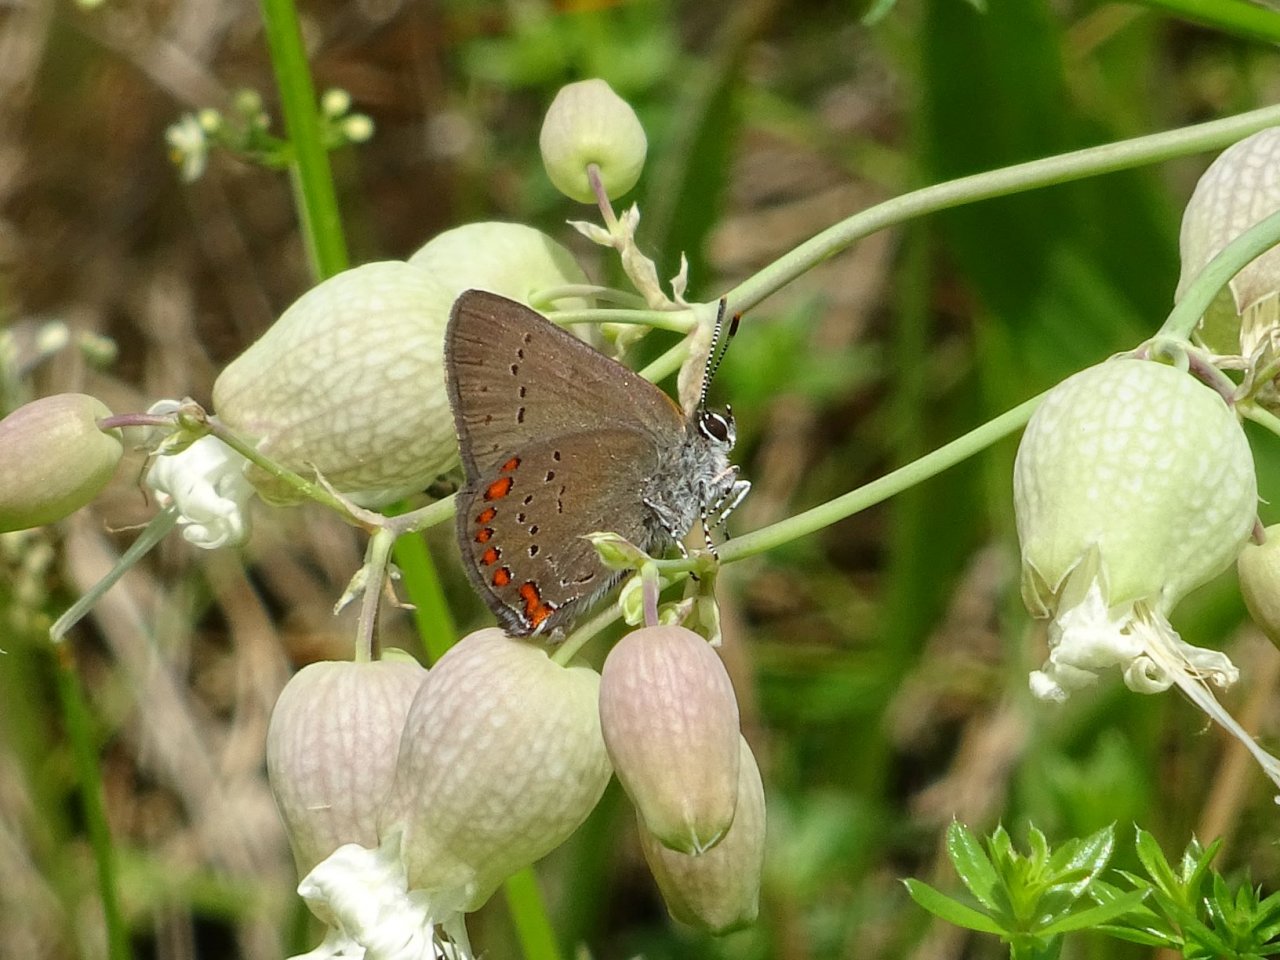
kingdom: Animalia
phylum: Arthropoda
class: Insecta
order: Lepidoptera
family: Lycaenidae
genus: Harkenclenus
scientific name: Harkenclenus titus
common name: Coral Hairstreak
